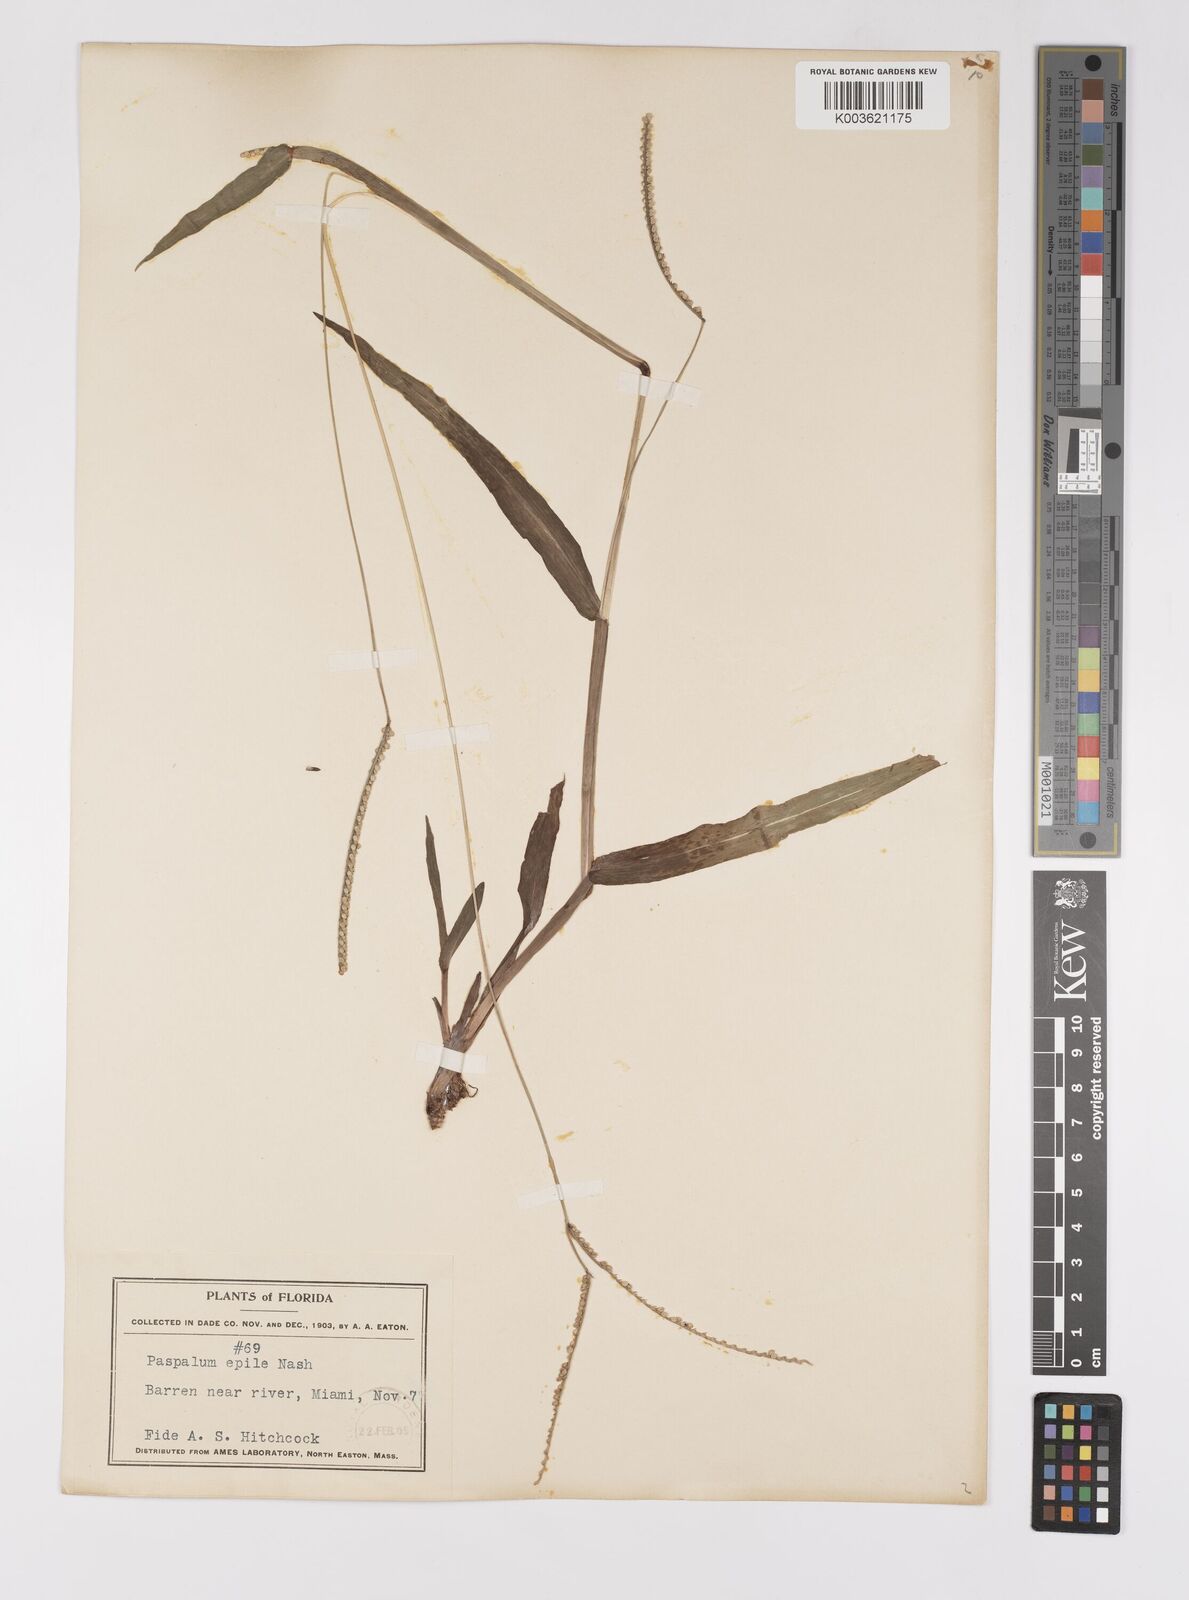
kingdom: Plantae
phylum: Tracheophyta
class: Liliopsida
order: Poales
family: Poaceae
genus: Paspalum
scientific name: Paspalum setaceum
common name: Slender paspalum
